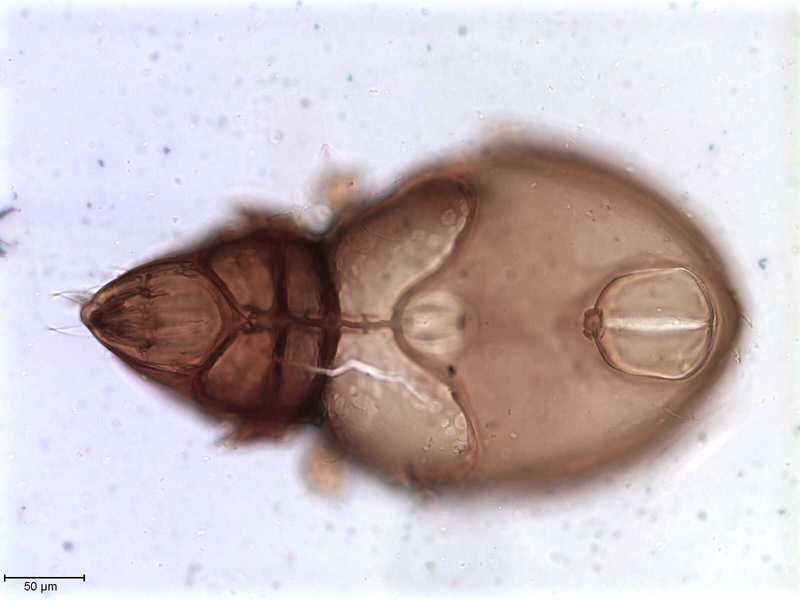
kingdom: Animalia
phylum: Arthropoda
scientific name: Arthropoda
